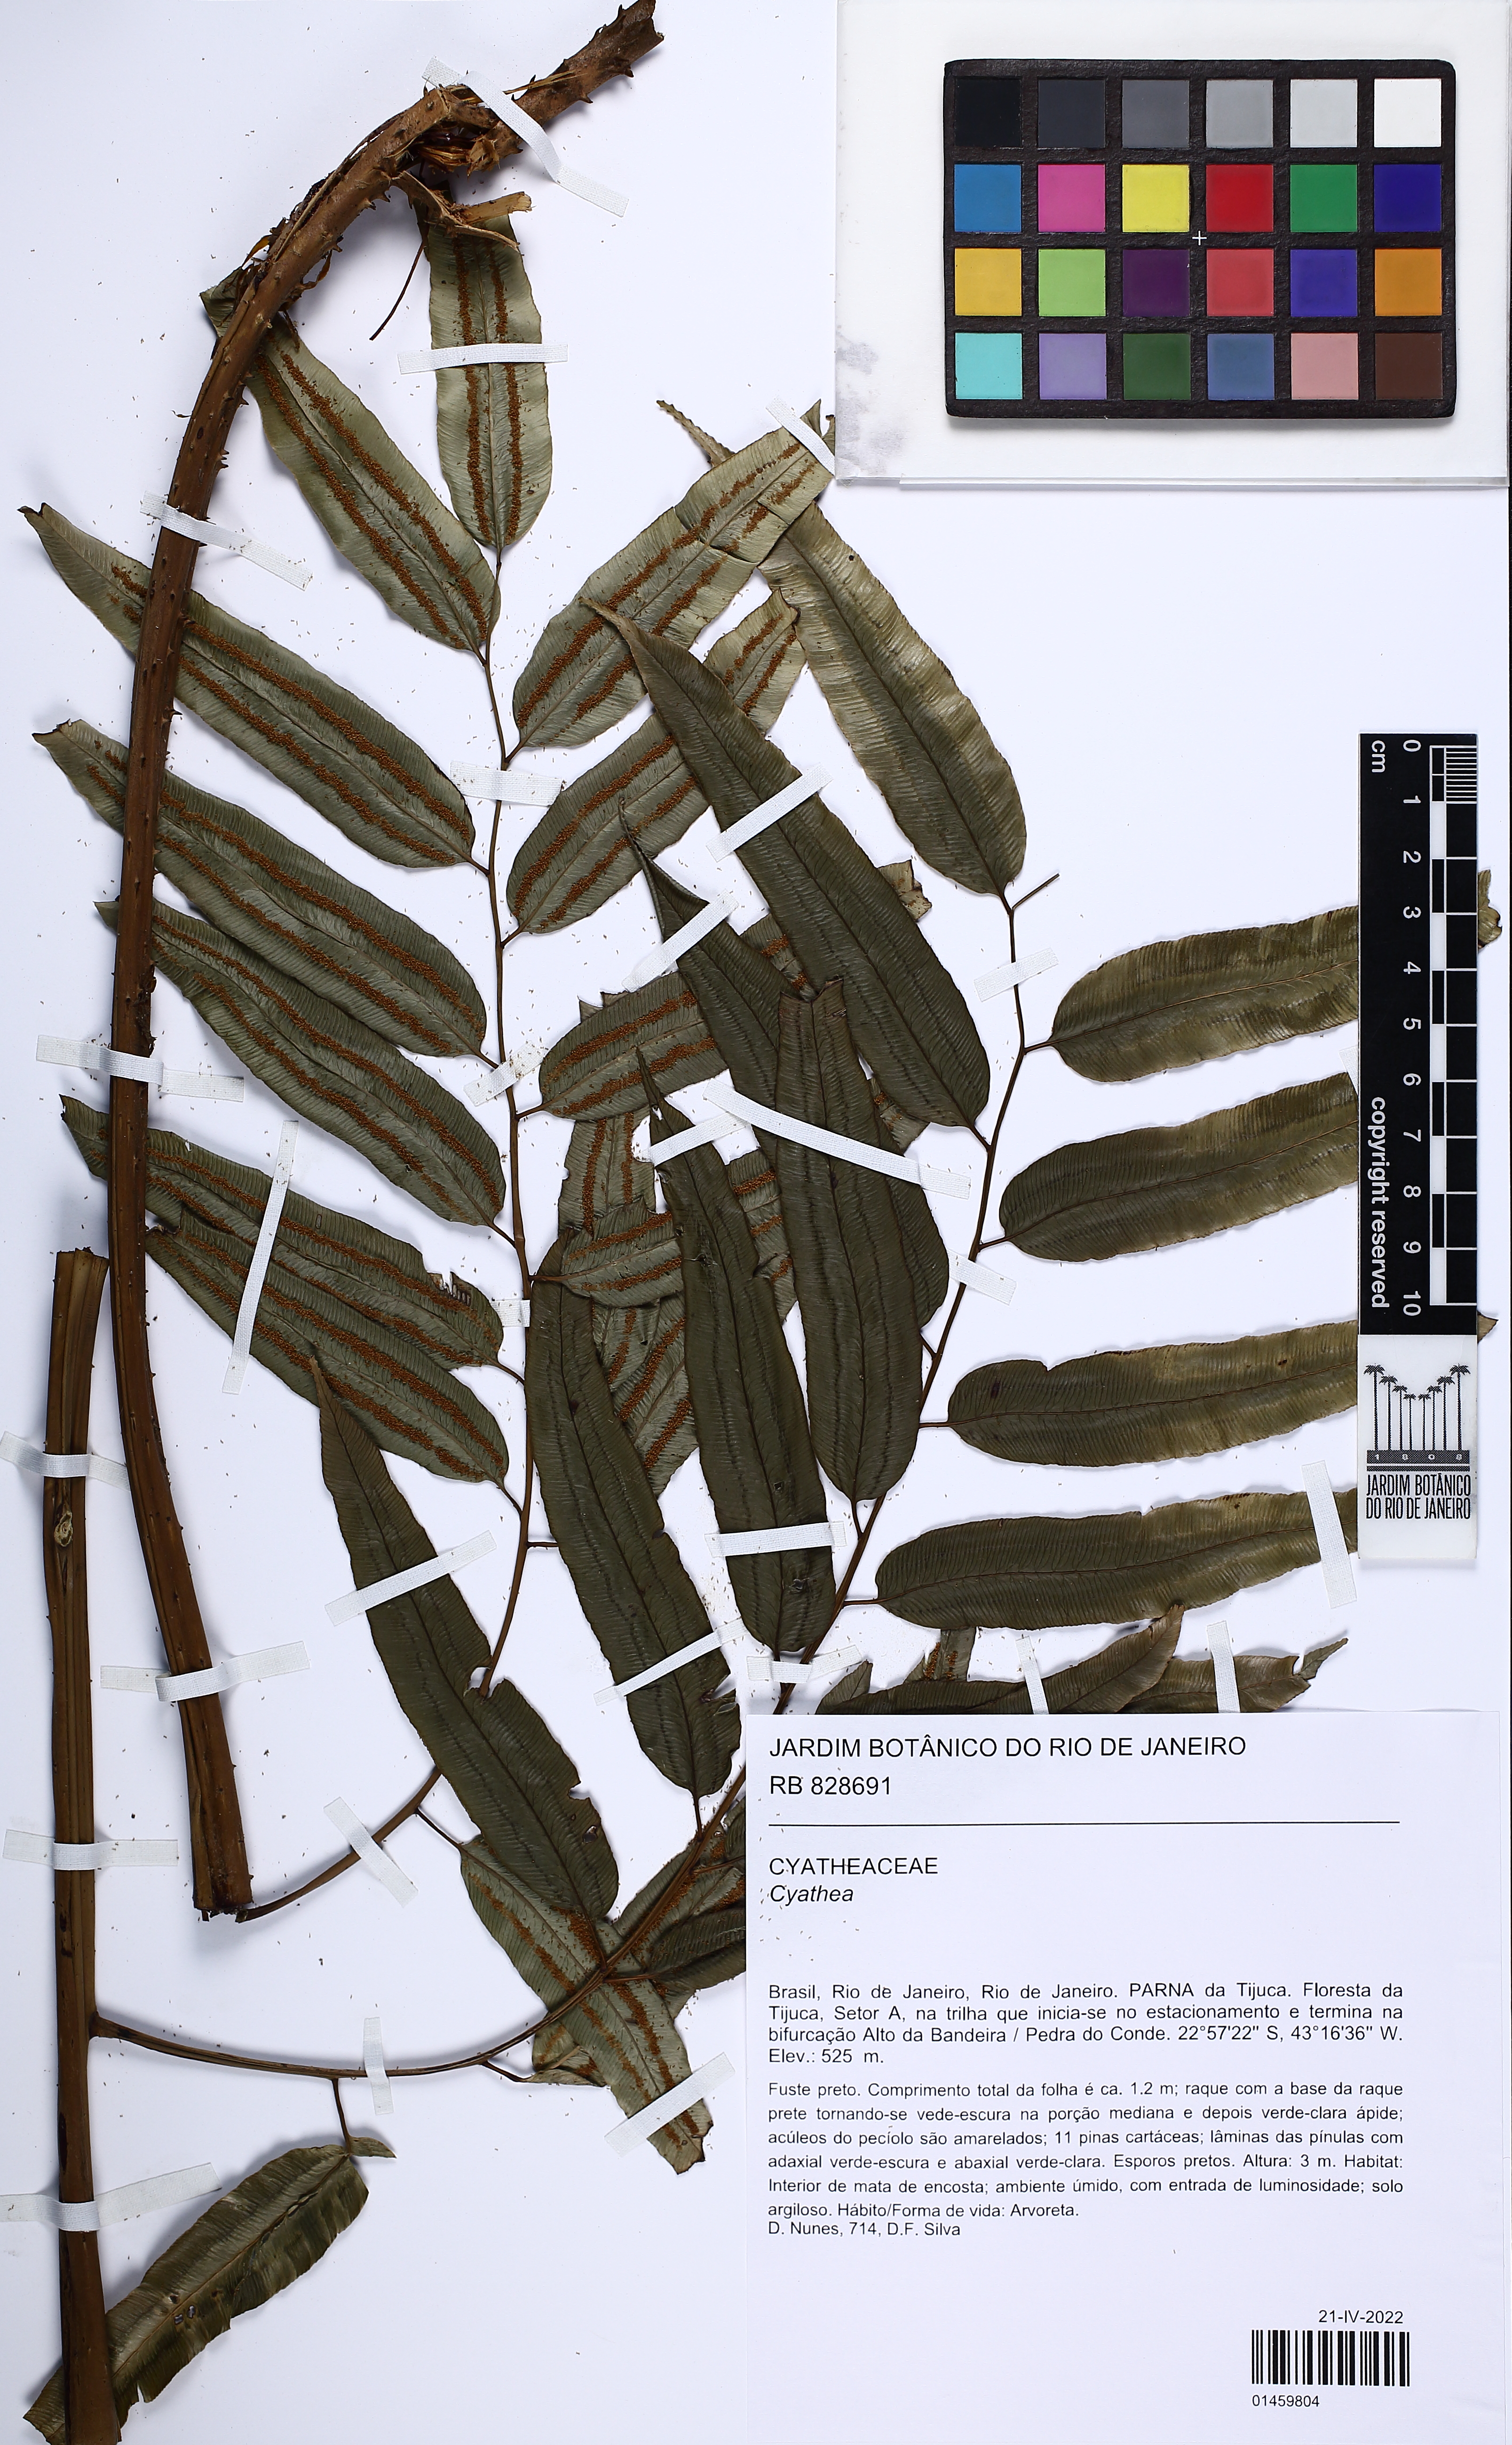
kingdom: Plantae
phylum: Tracheophyta
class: Polypodiopsida
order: Cyatheales
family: Cyatheaceae
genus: Cyathea
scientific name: Cyathea
